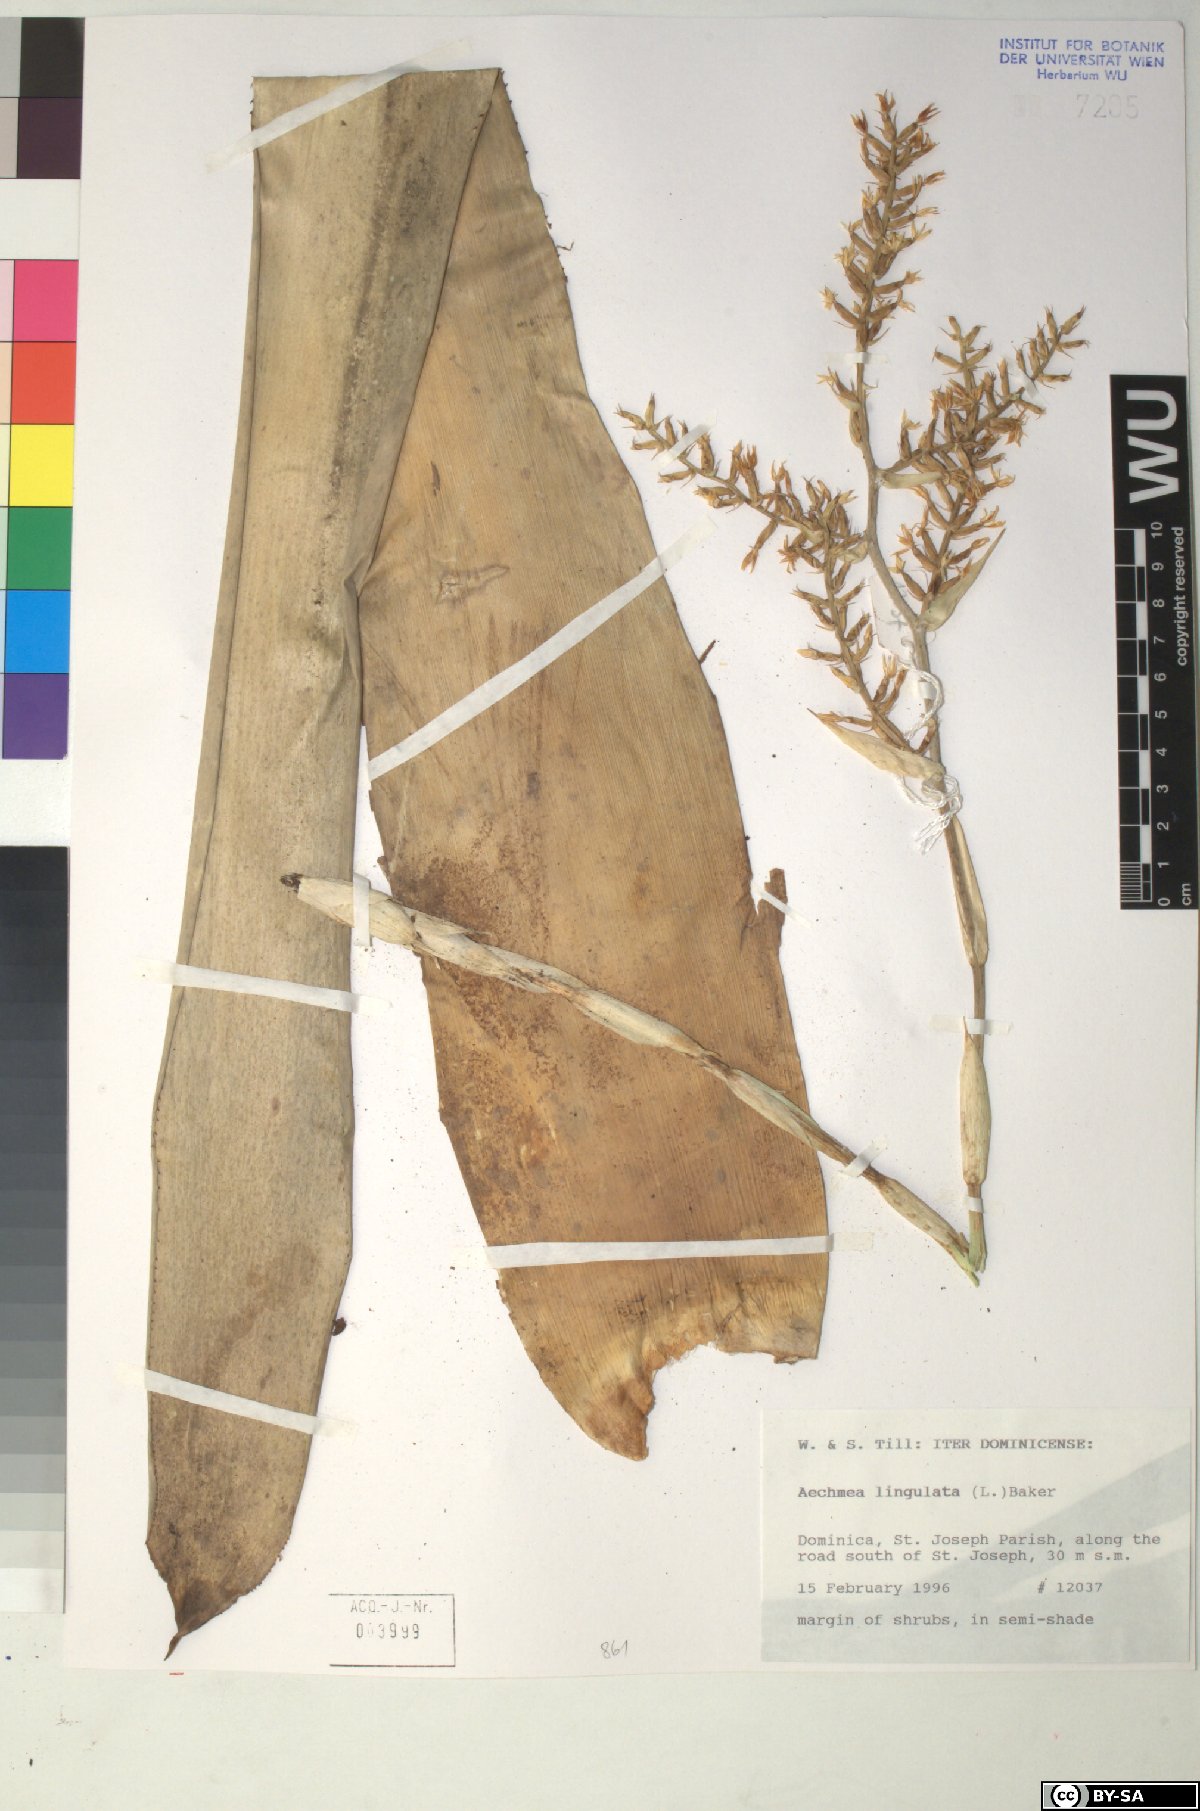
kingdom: Plantae
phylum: Tracheophyta
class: Liliopsida
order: Poales
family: Bromeliaceae
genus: Wittmackia
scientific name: Wittmackia lingulata
